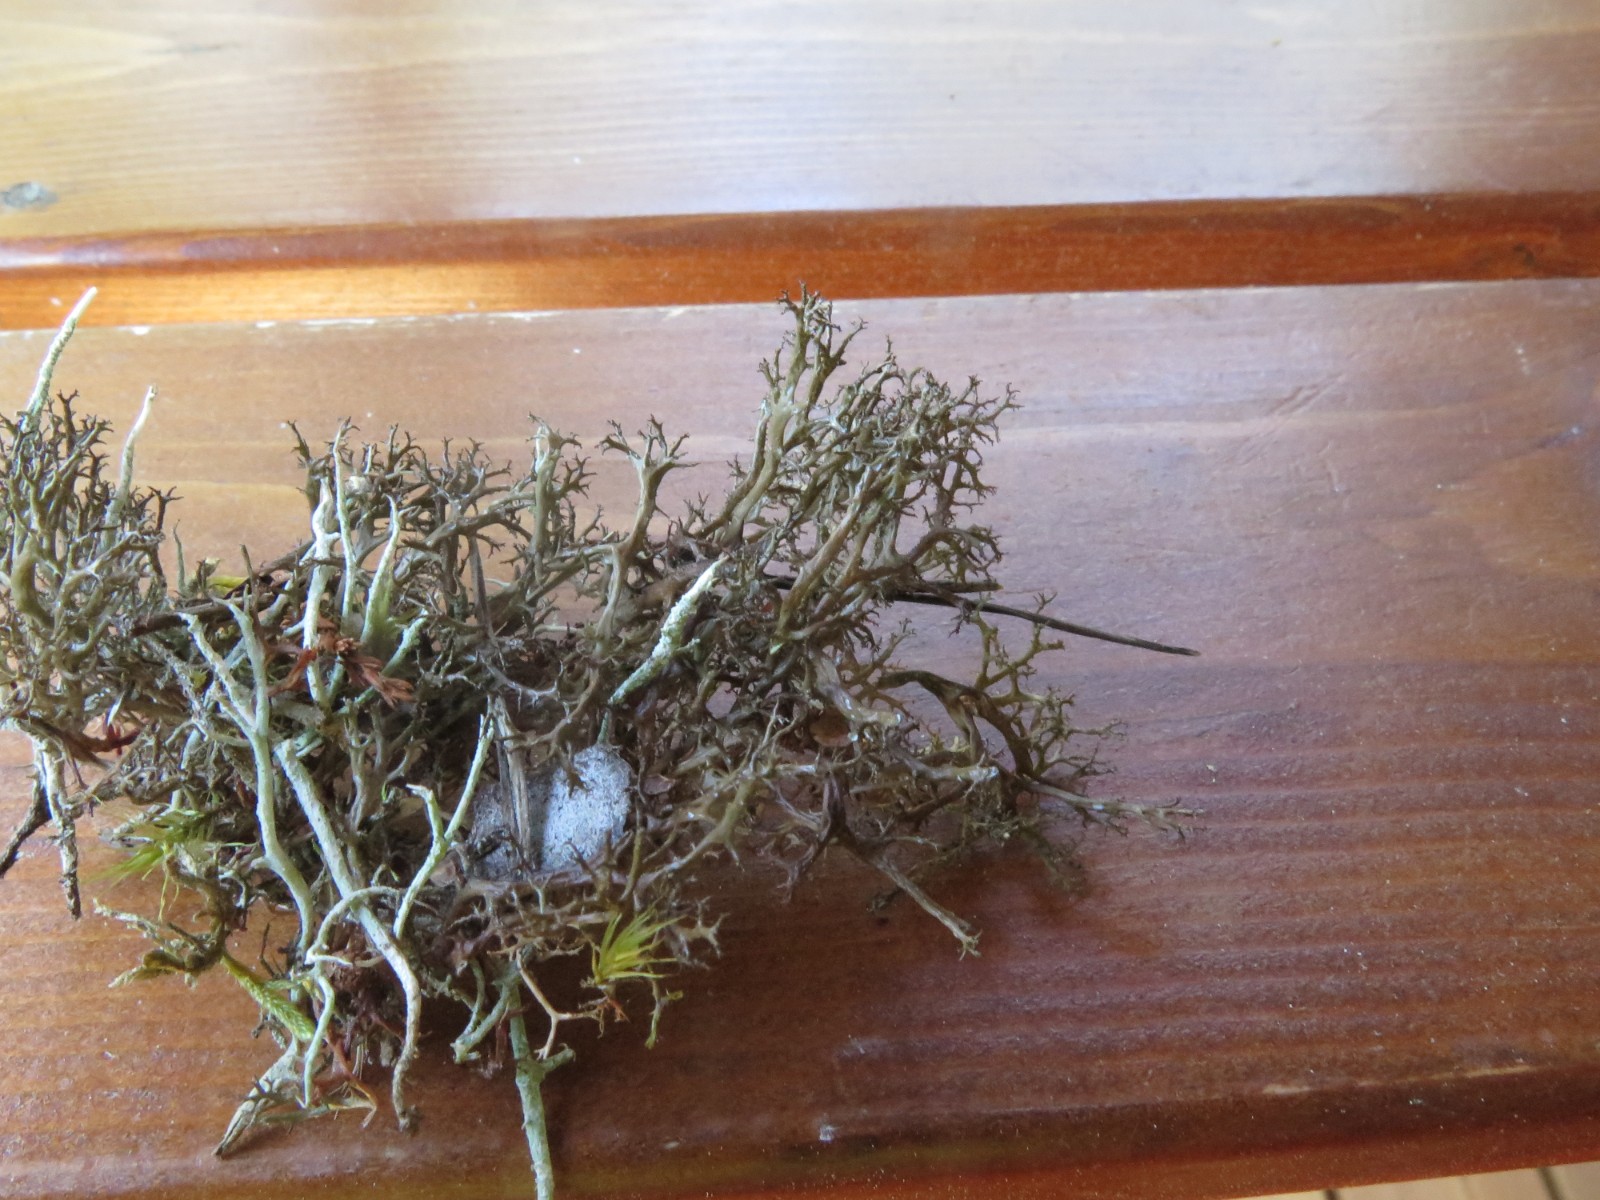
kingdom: Fungi
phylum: Ascomycota
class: Lecanoromycetes
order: Lecanorales
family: Parmeliaceae
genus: Cetraria
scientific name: Cetraria aculeata
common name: grubet tjørnelav
